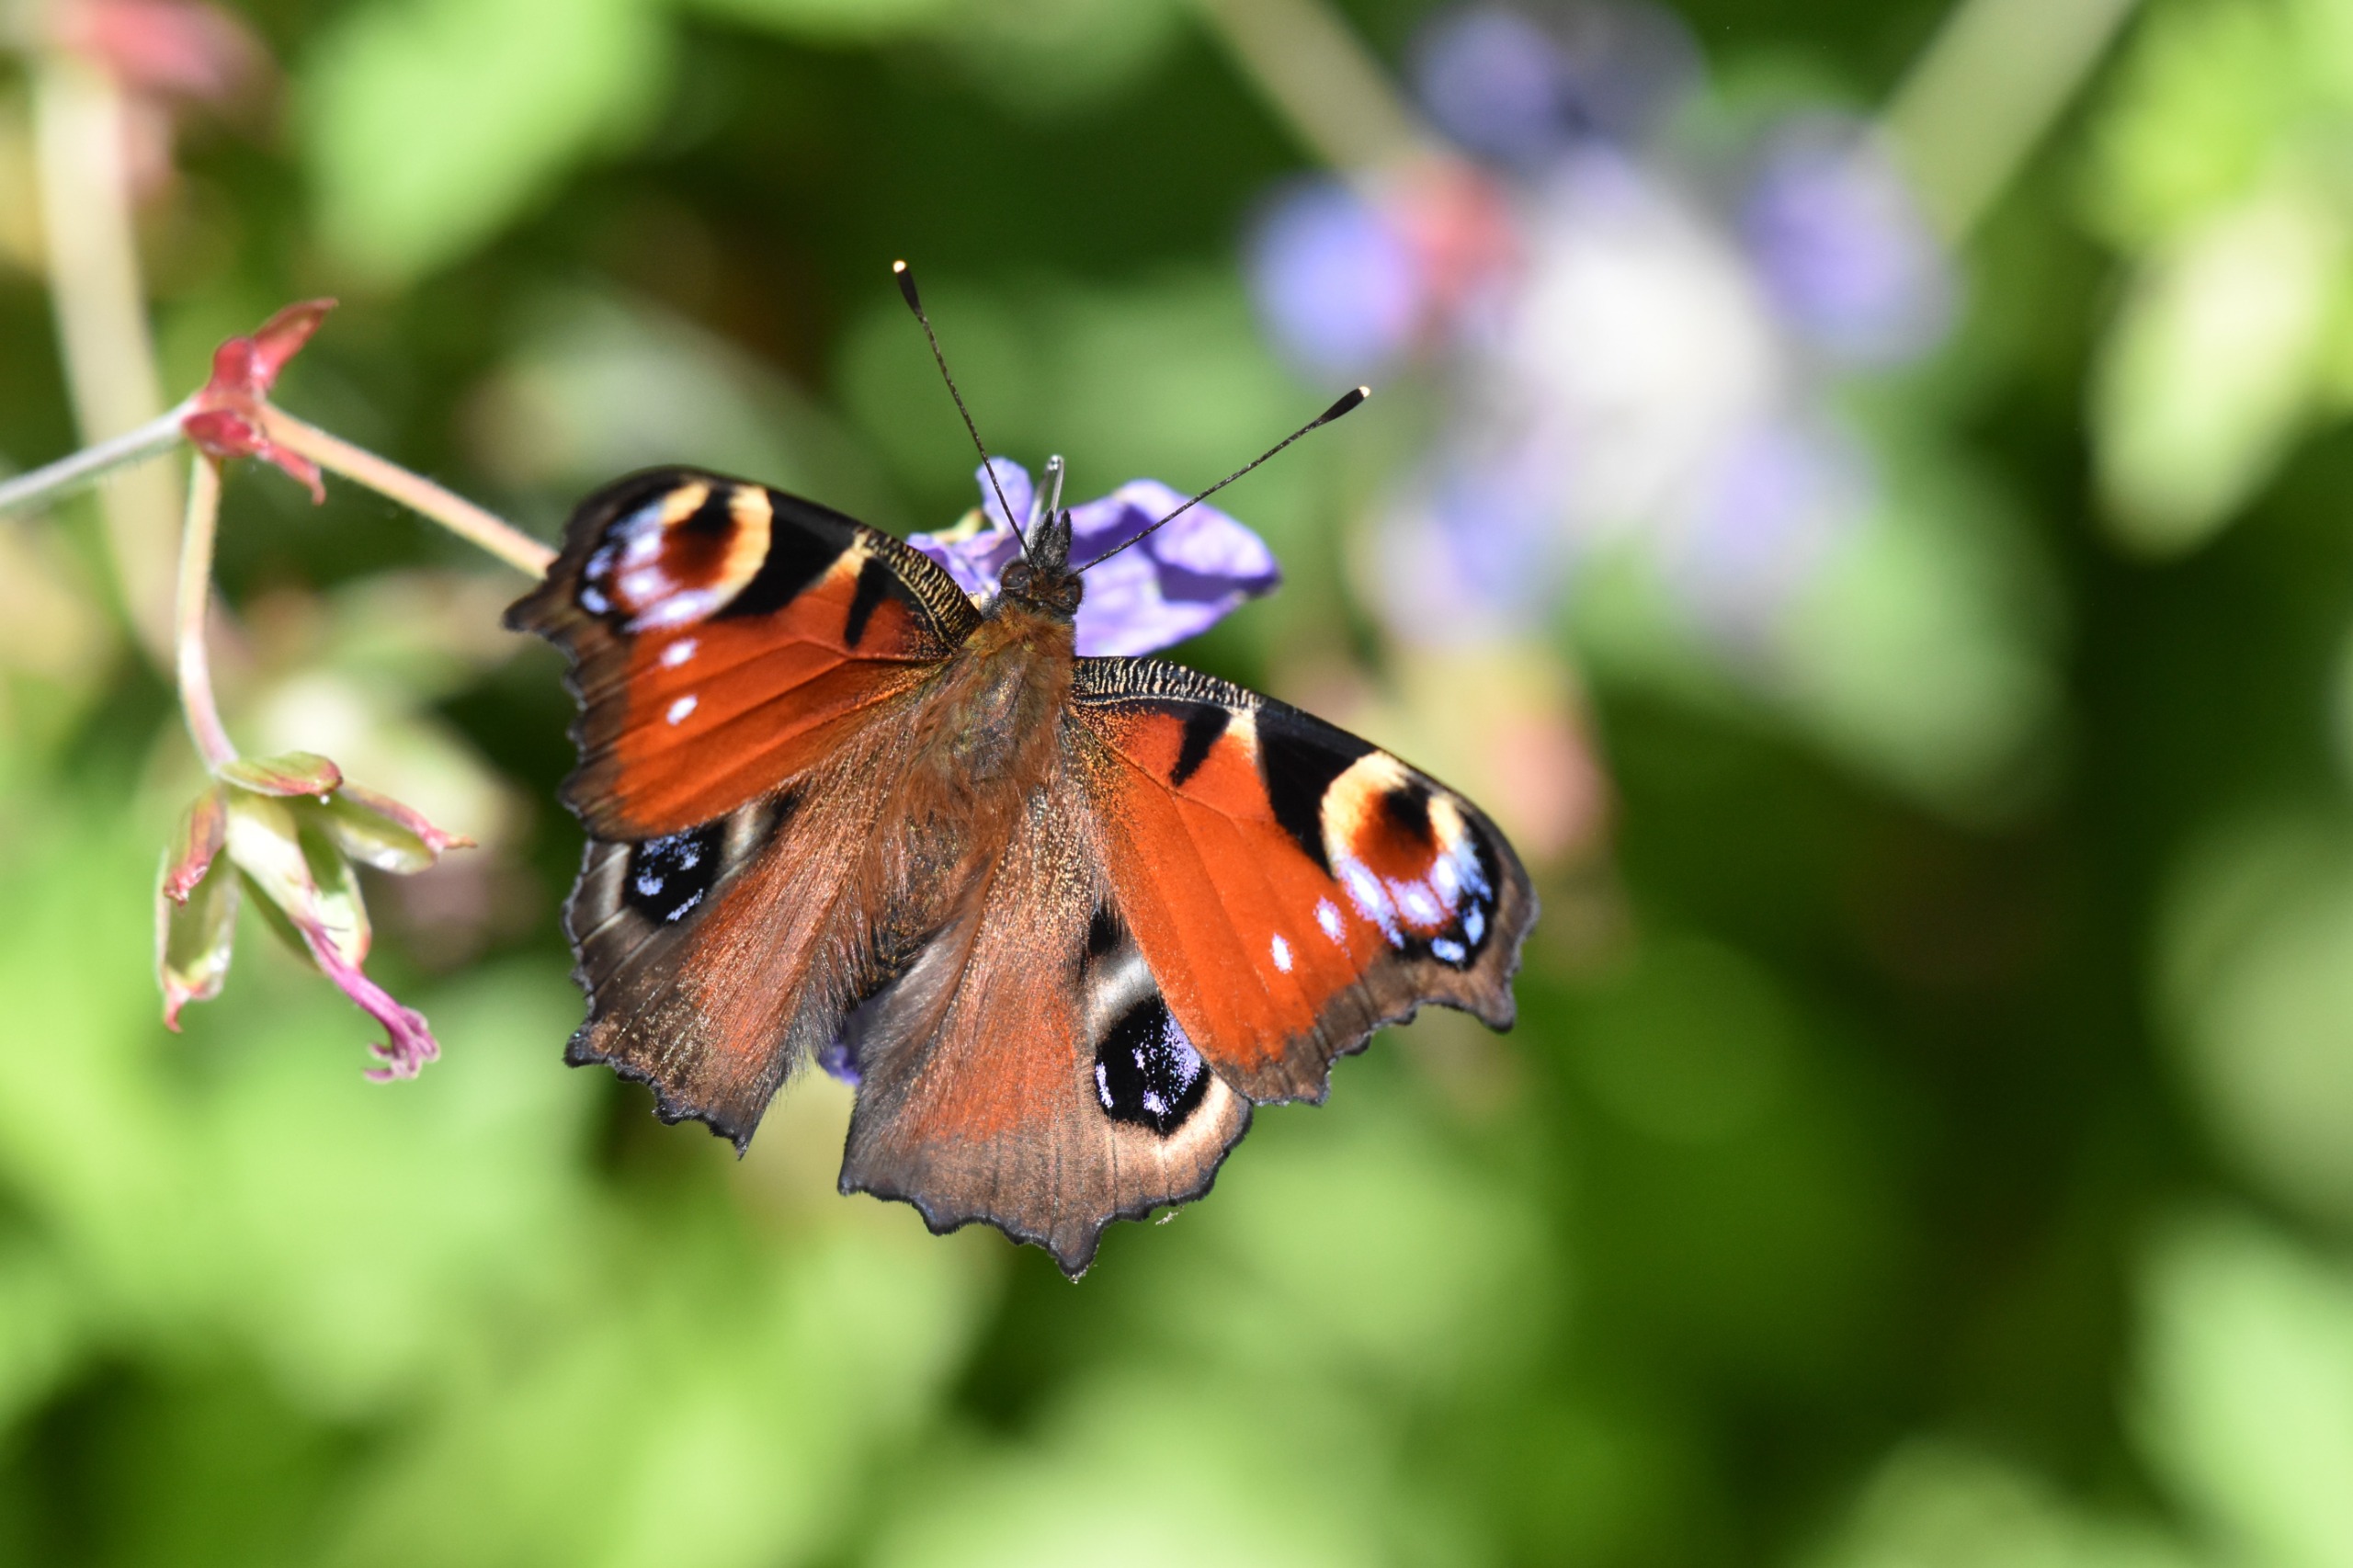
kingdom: Animalia
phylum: Arthropoda
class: Insecta
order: Lepidoptera
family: Nymphalidae
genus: Aglais
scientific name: Aglais io
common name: Dagpåfugleøje
